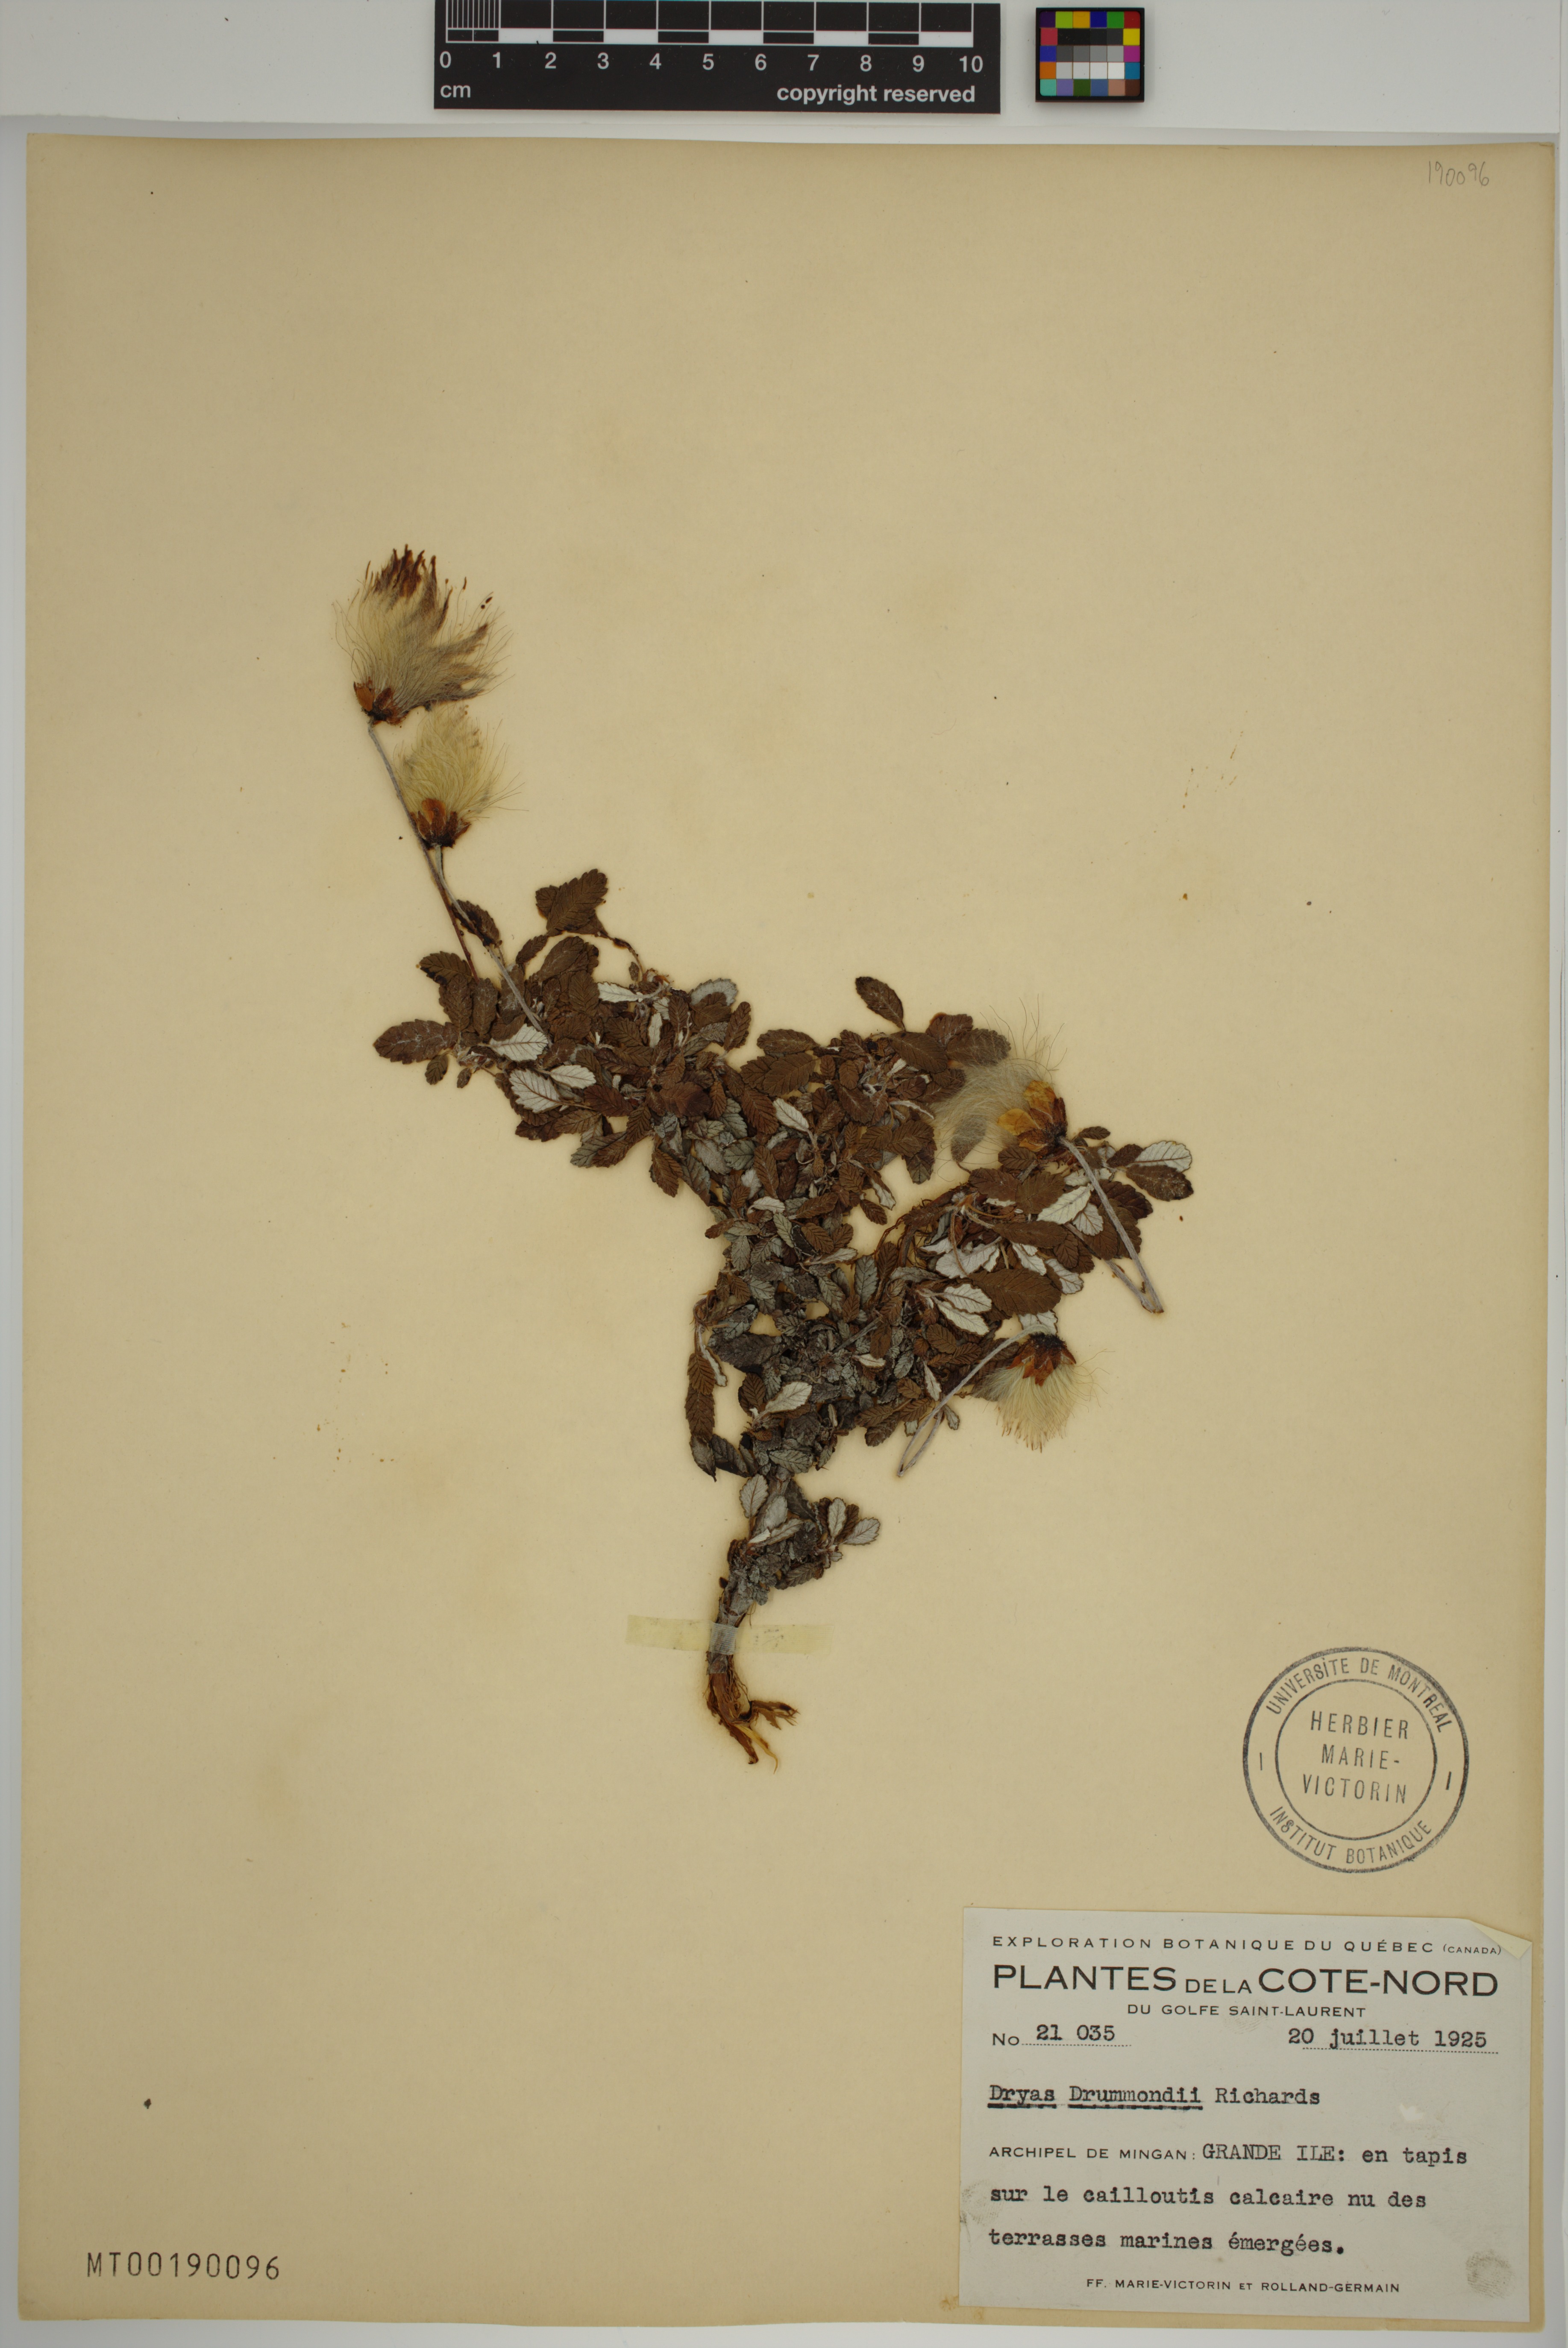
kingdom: Plantae
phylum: Tracheophyta
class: Magnoliopsida
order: Rosales
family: Rosaceae
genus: Dryas
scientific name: Dryas drummondii
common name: Drummond's dryad
